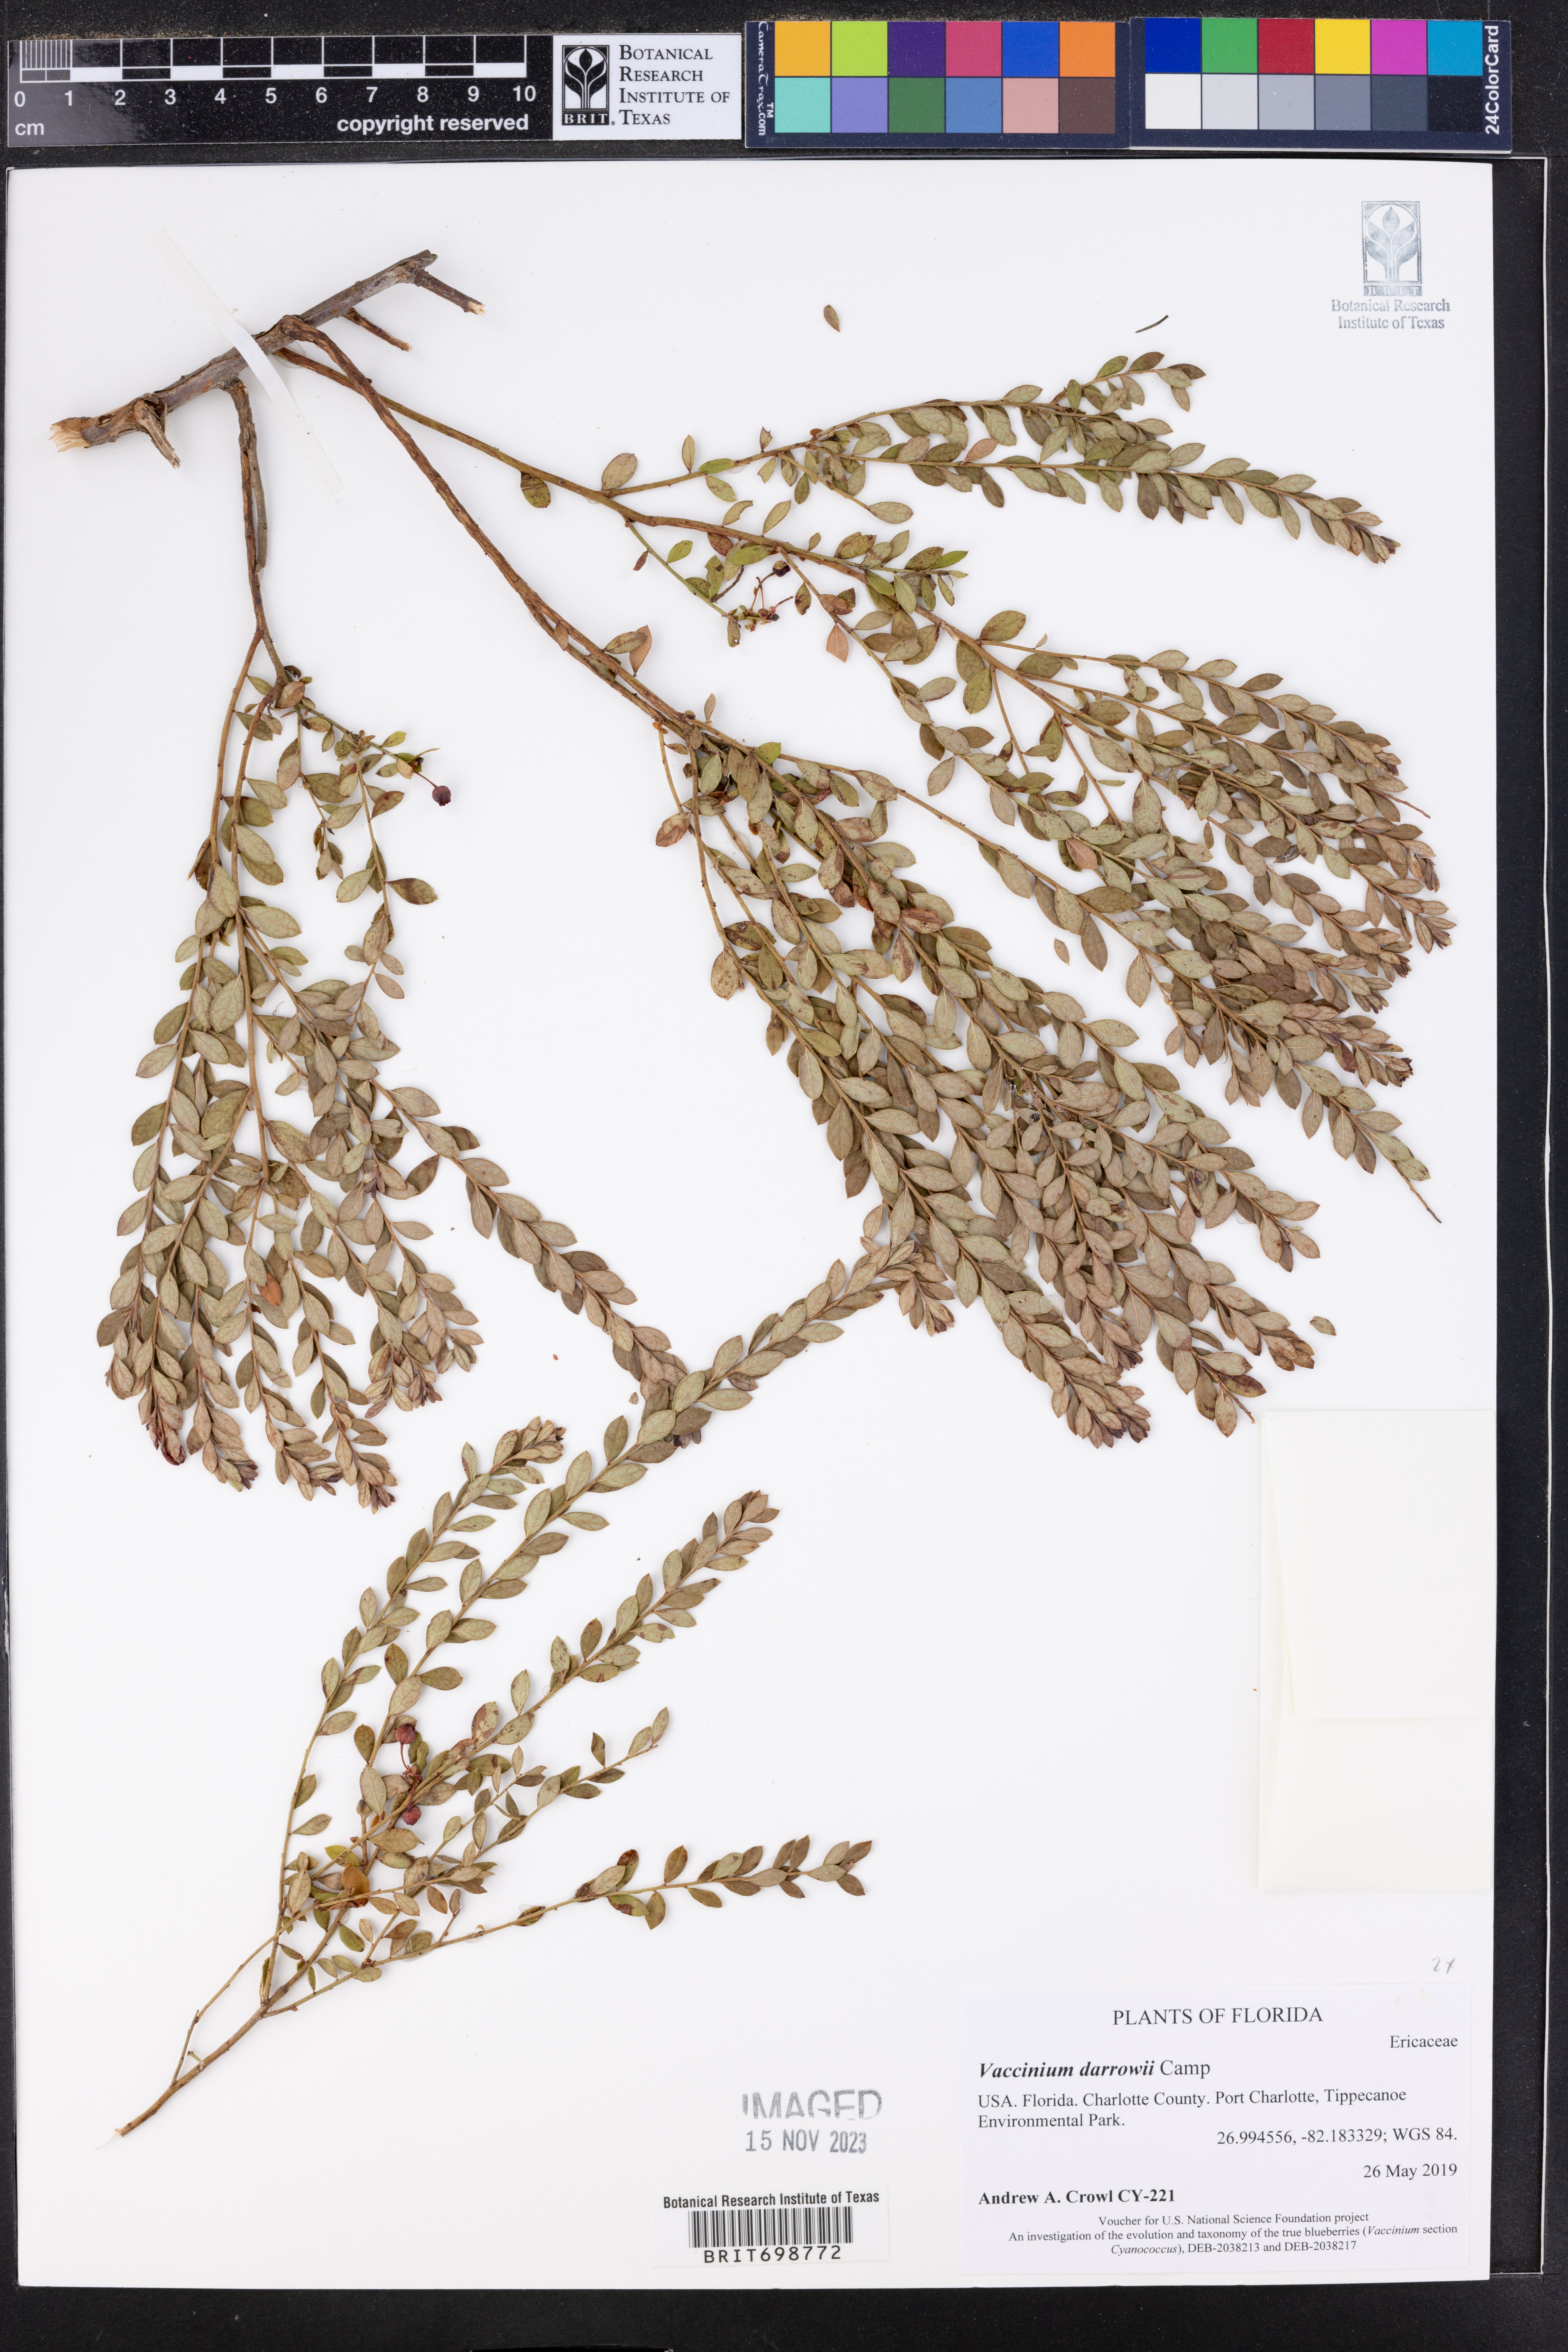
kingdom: Plantae
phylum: Tracheophyta
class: Magnoliopsida
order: Ericales
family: Ericaceae
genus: Vaccinium
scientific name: Vaccinium darrowii
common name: Darrow's blueberry
